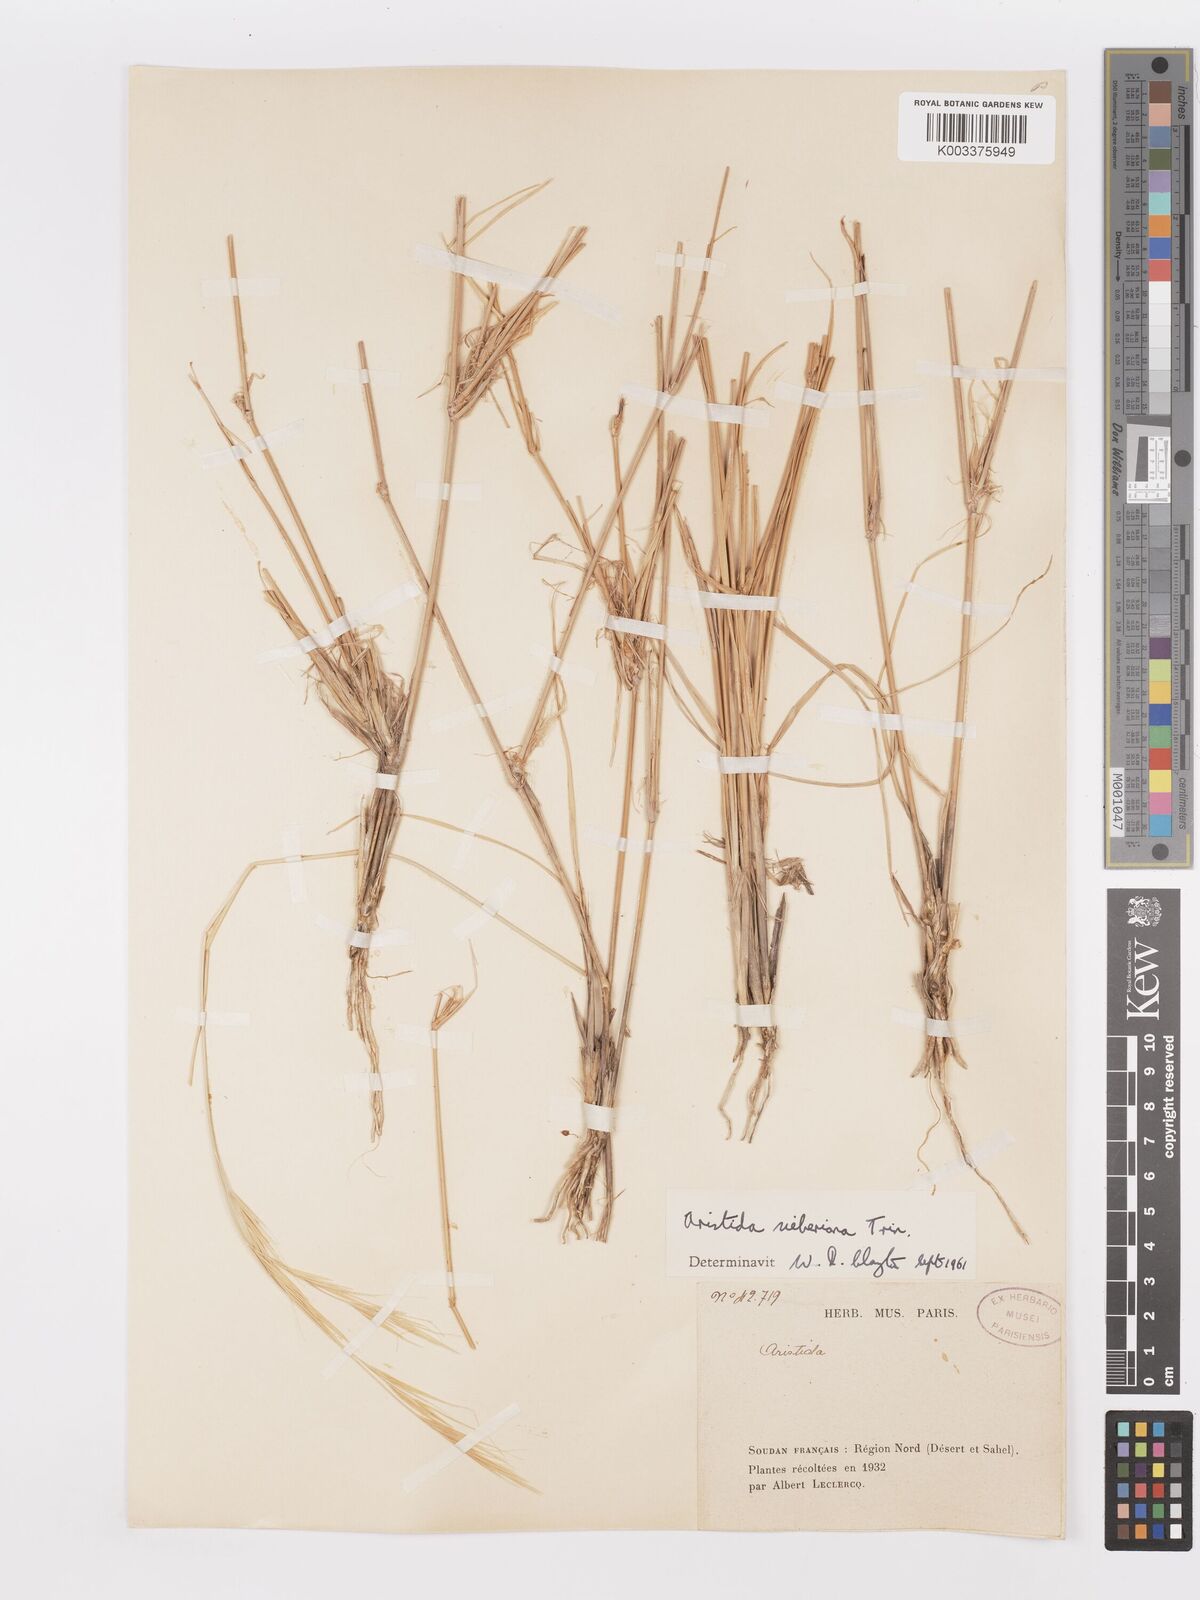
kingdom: Plantae
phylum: Tracheophyta
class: Liliopsida
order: Poales
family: Poaceae
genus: Aristida
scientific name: Aristida sieberiana
